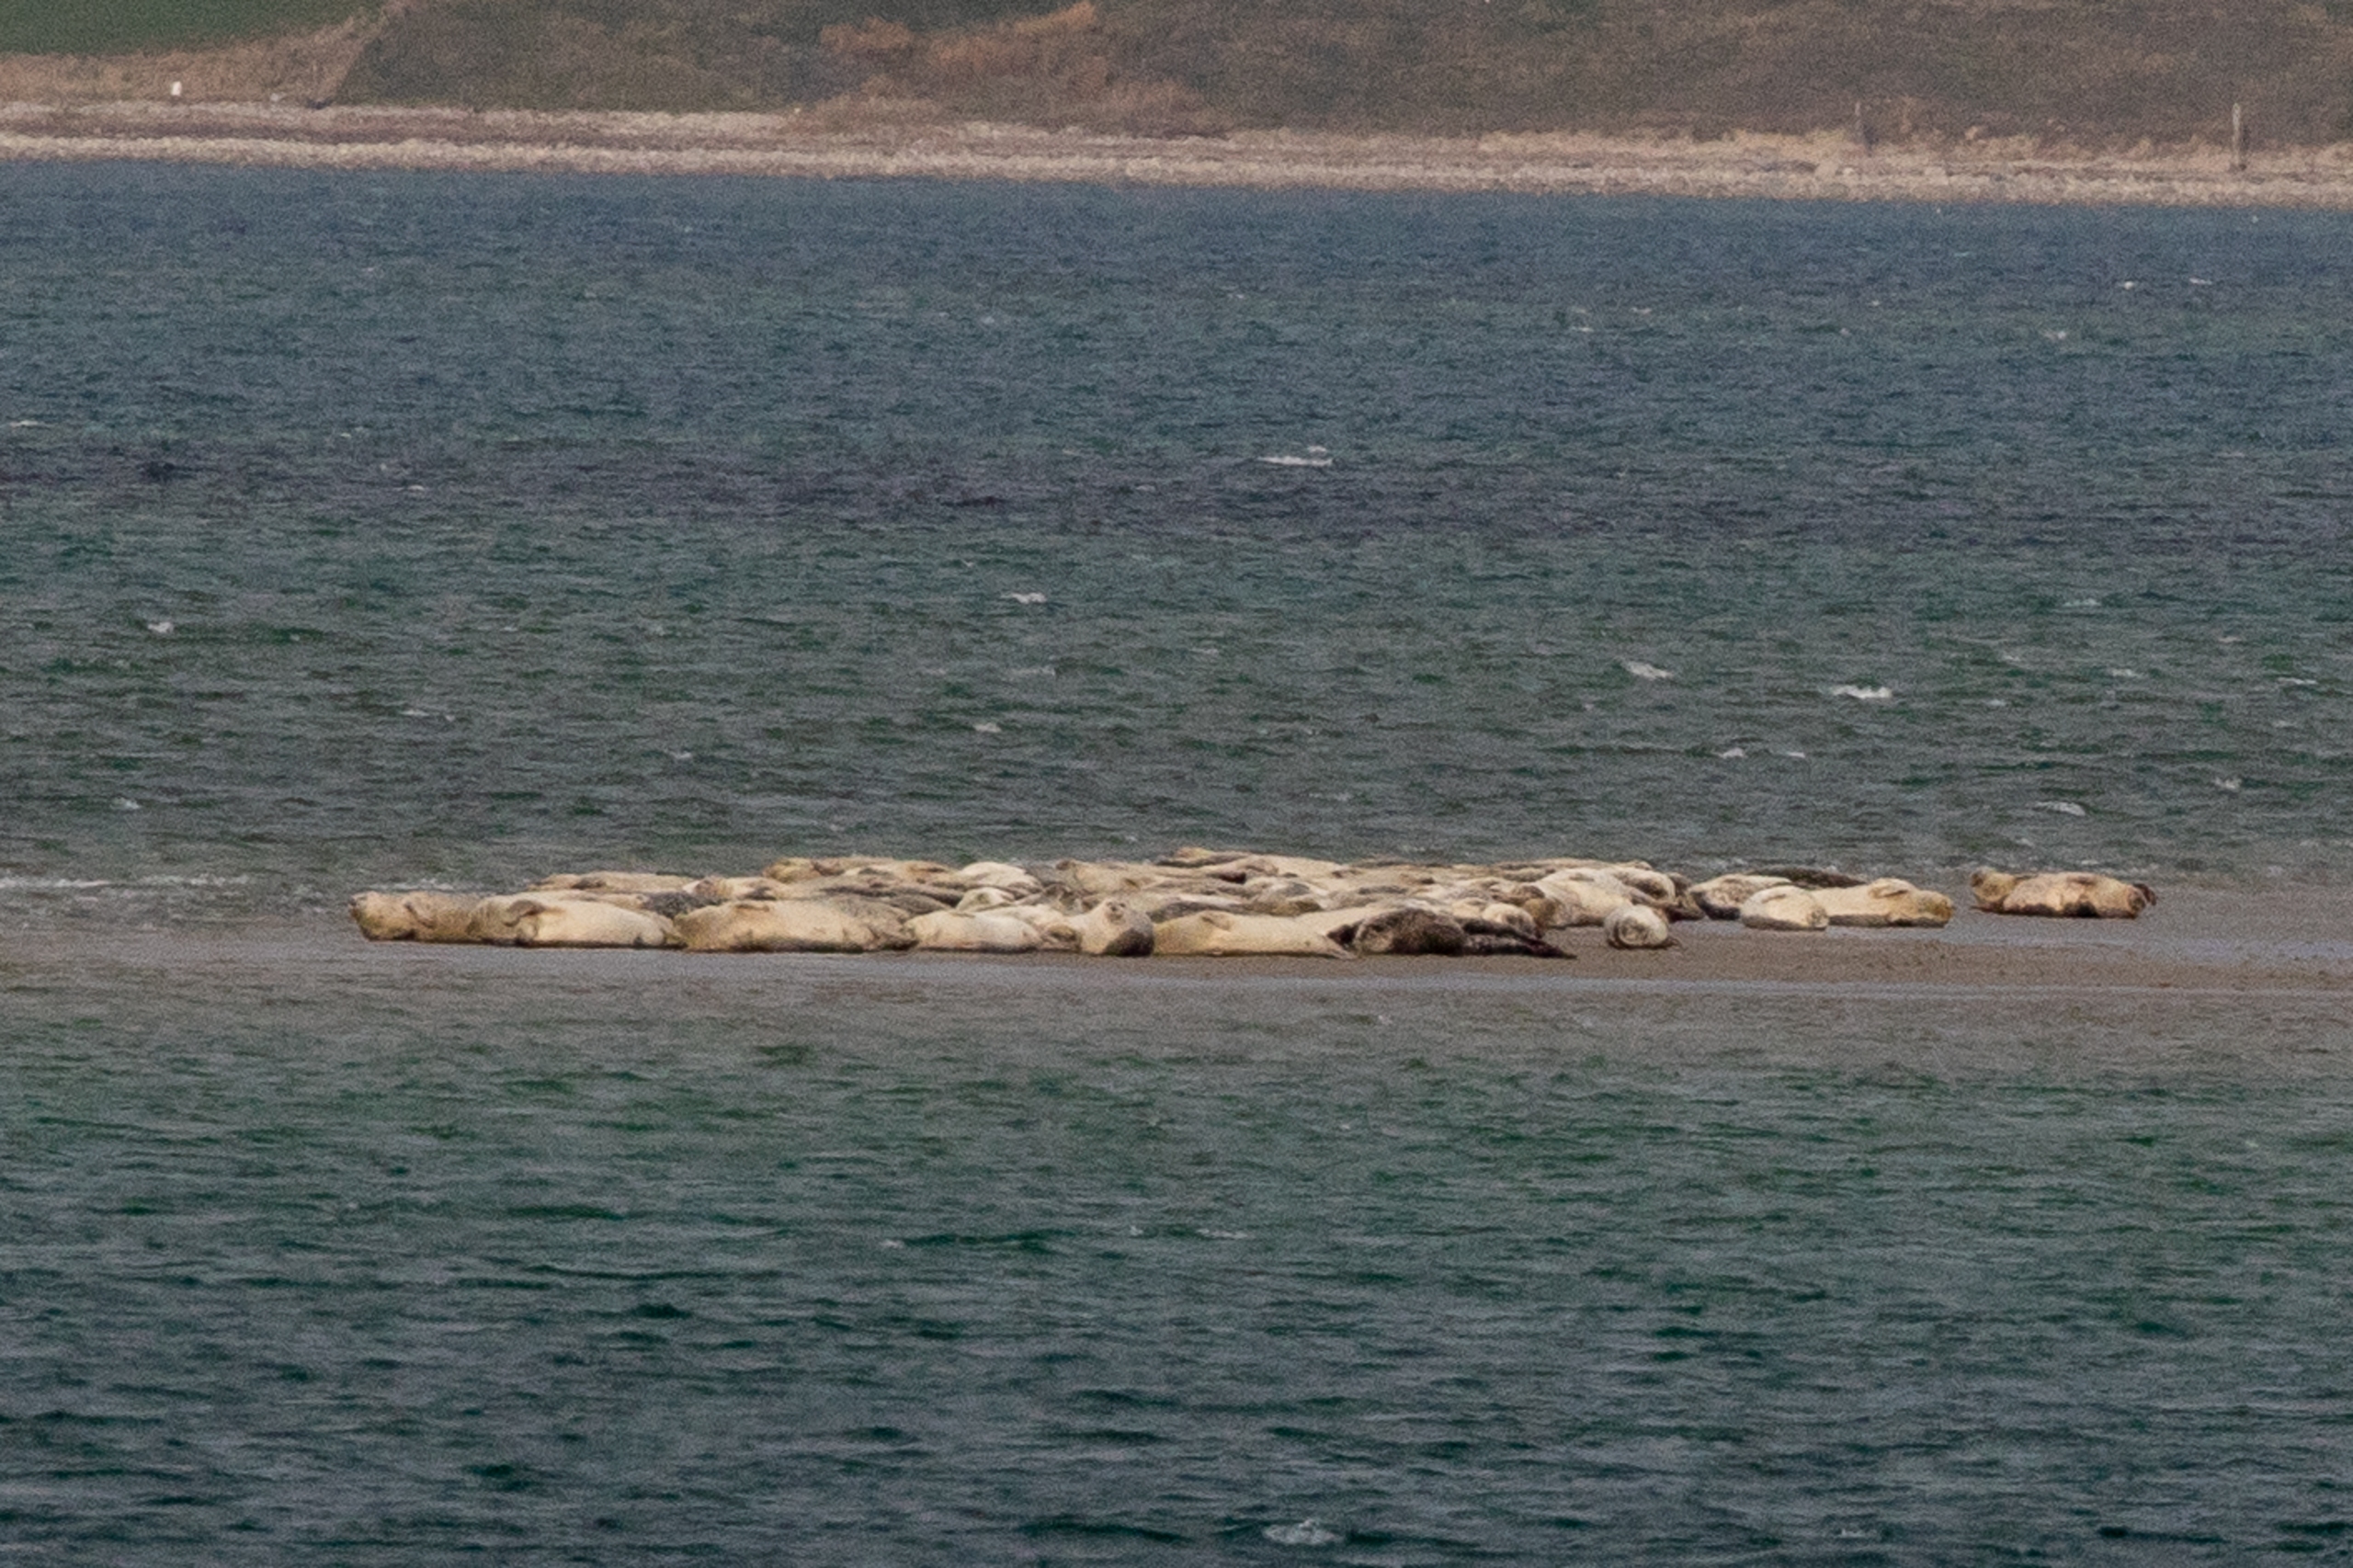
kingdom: Animalia
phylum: Chordata
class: Mammalia
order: Carnivora
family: Phocidae
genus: Halichoerus
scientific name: Halichoerus grypus
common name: Gråsæl
